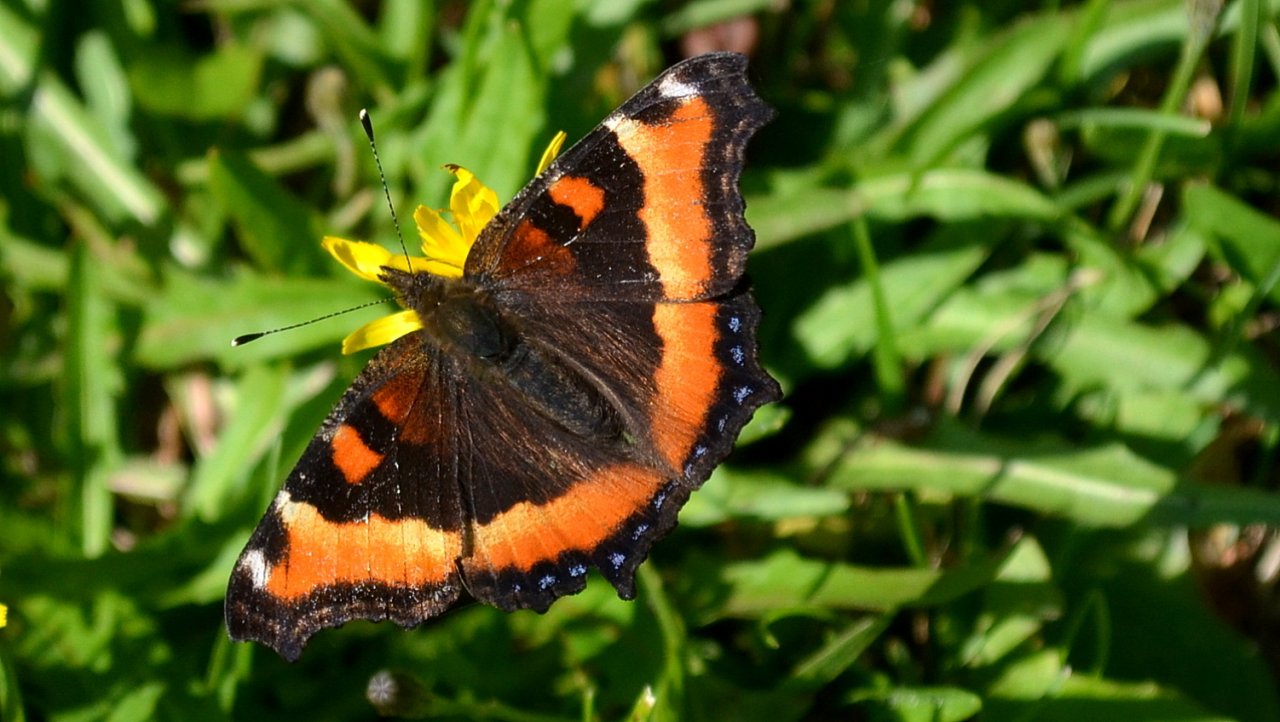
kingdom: Animalia
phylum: Arthropoda
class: Insecta
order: Lepidoptera
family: Nymphalidae
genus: Aglais
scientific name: Aglais milberti
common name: Milbert's Tortoiseshell
